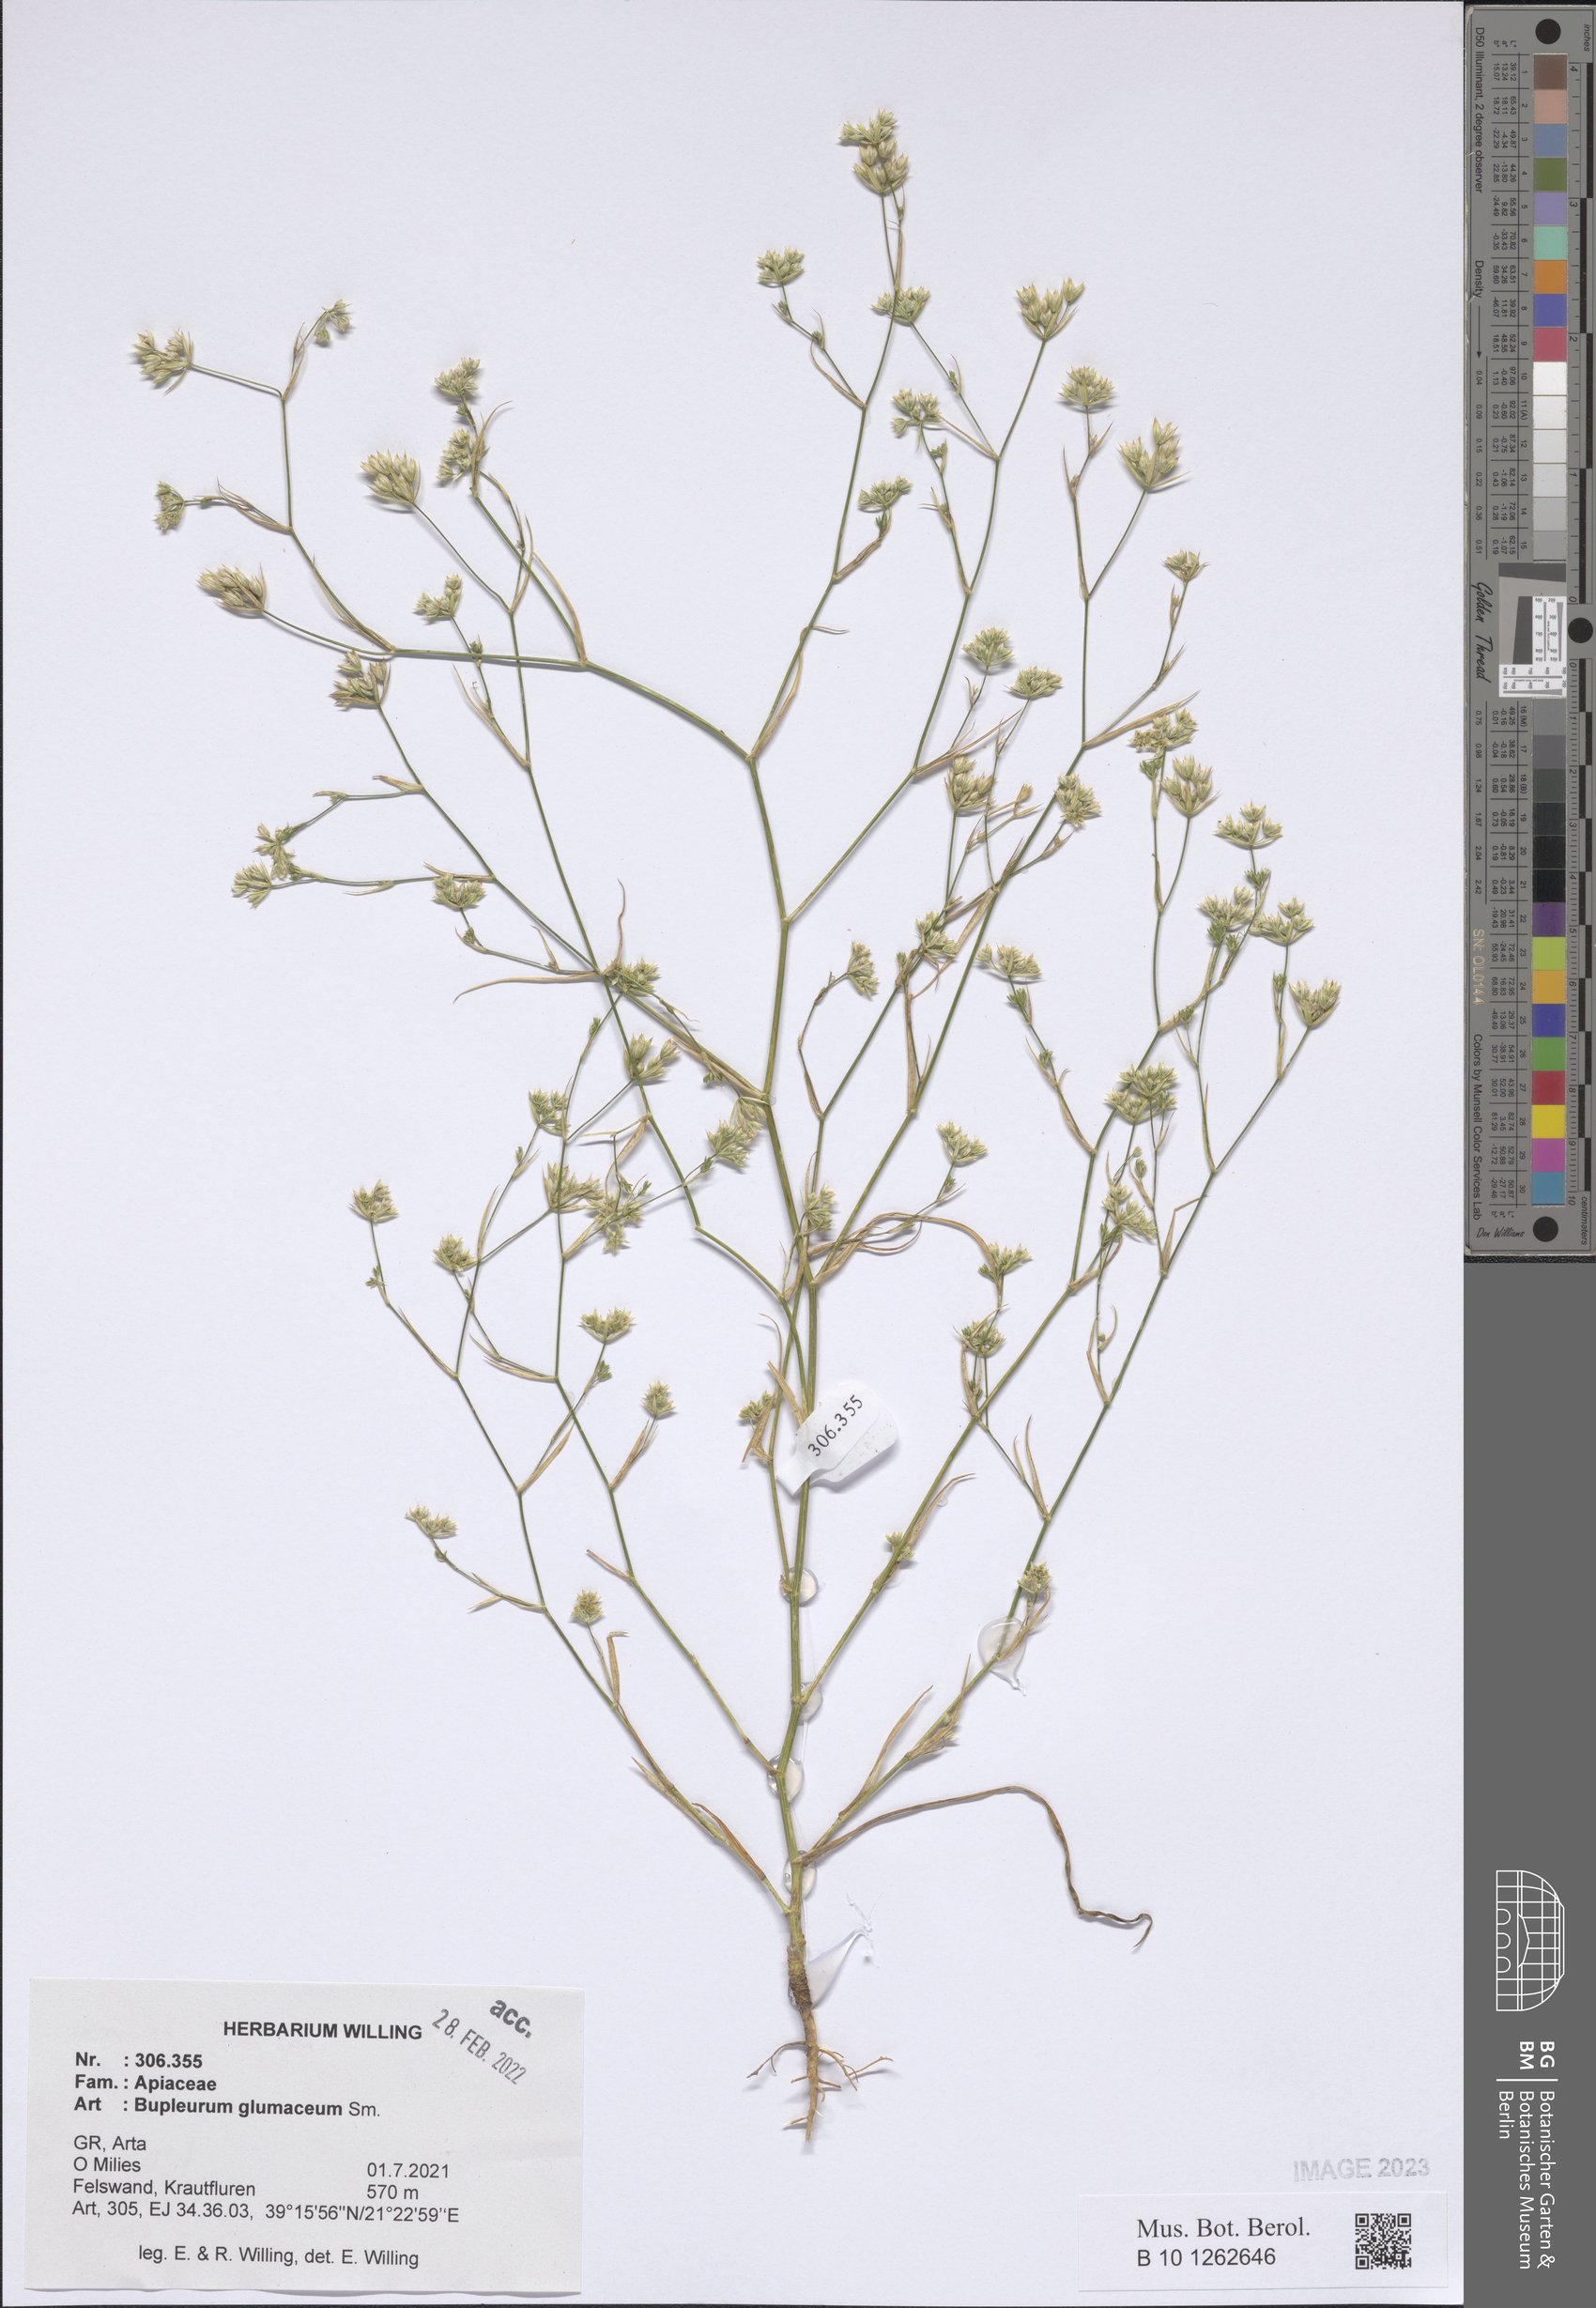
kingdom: Plantae
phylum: Tracheophyta
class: Magnoliopsida
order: Apiales
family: Apiaceae
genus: Bupleurum
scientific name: Bupleurum glumaceum
